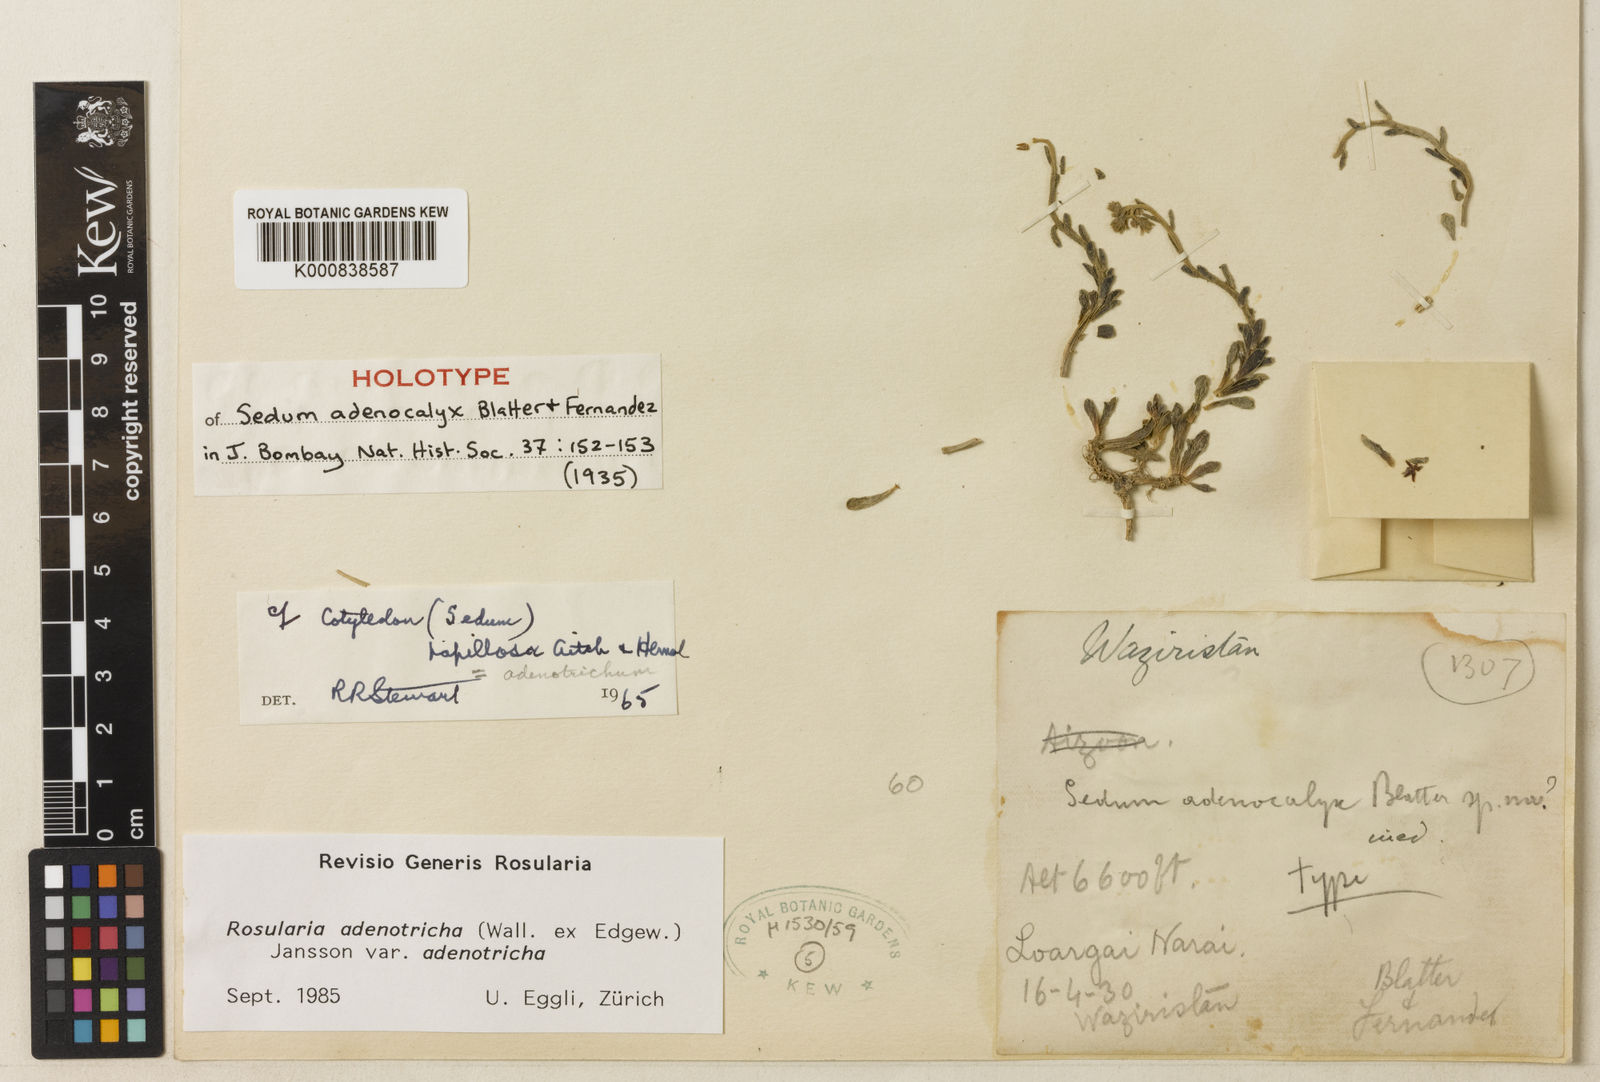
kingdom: Plantae
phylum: Tracheophyta
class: Magnoliopsida
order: Saxifragales
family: Crassulaceae
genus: Rosularia
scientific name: Rosularia adenotricha
